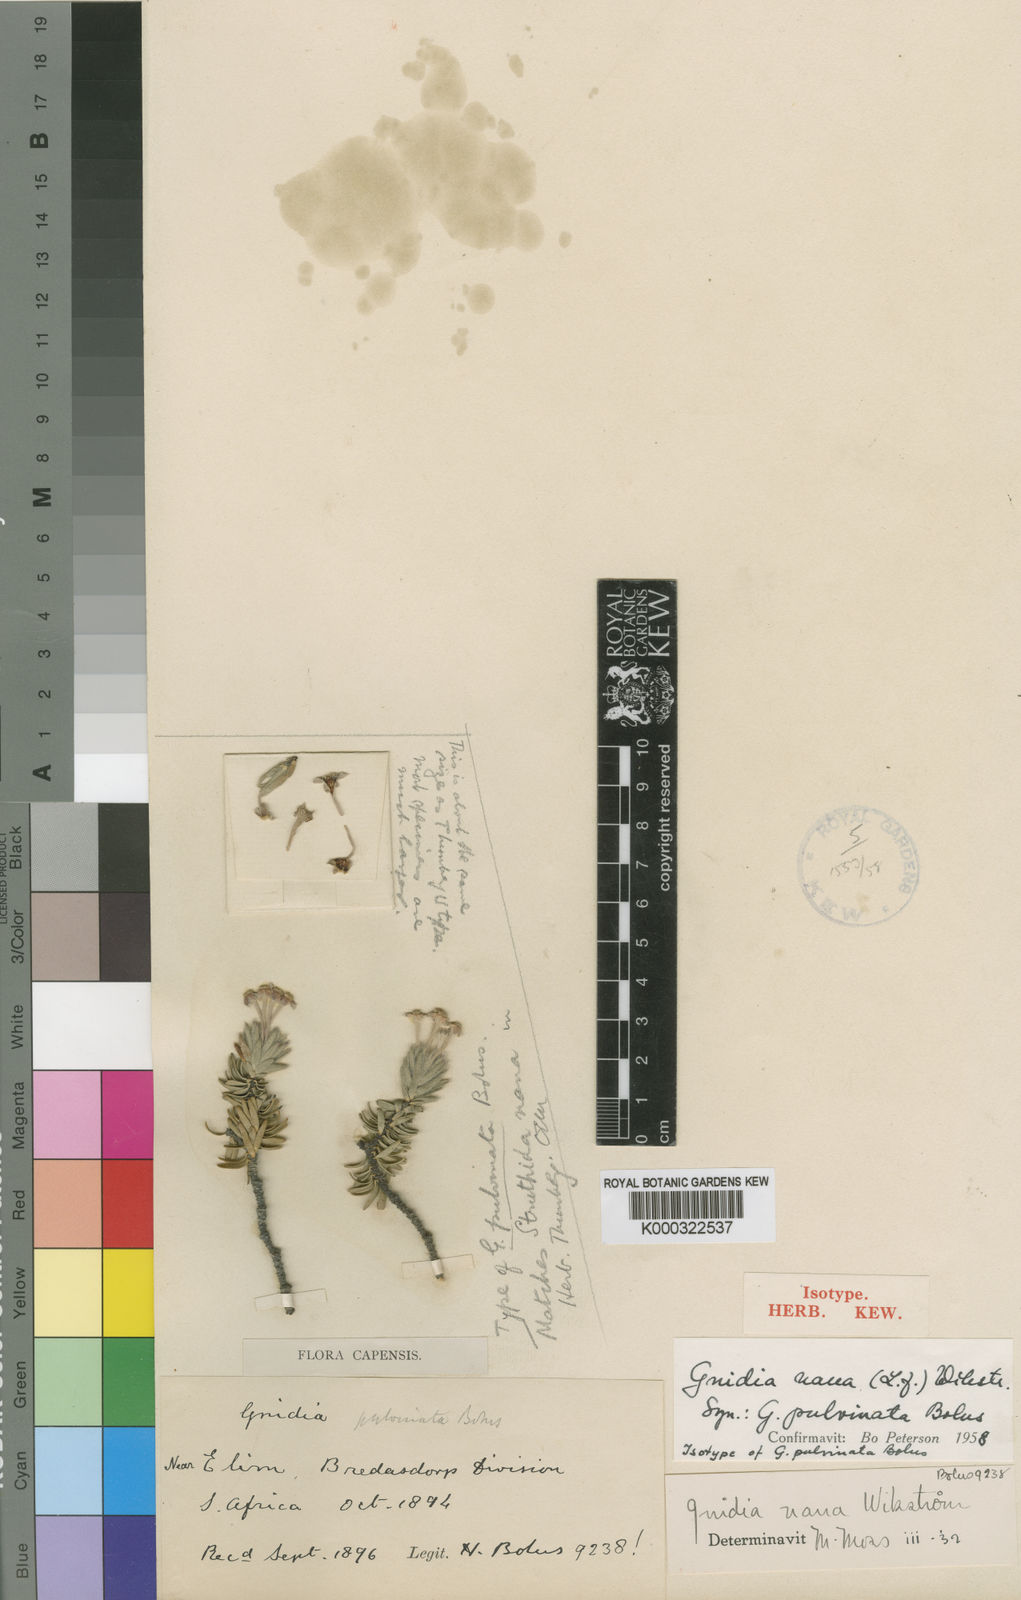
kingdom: Plantae
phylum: Tracheophyta
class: Magnoliopsida
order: Malvales
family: Thymelaeaceae
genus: Gnidia
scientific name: Gnidia nana
